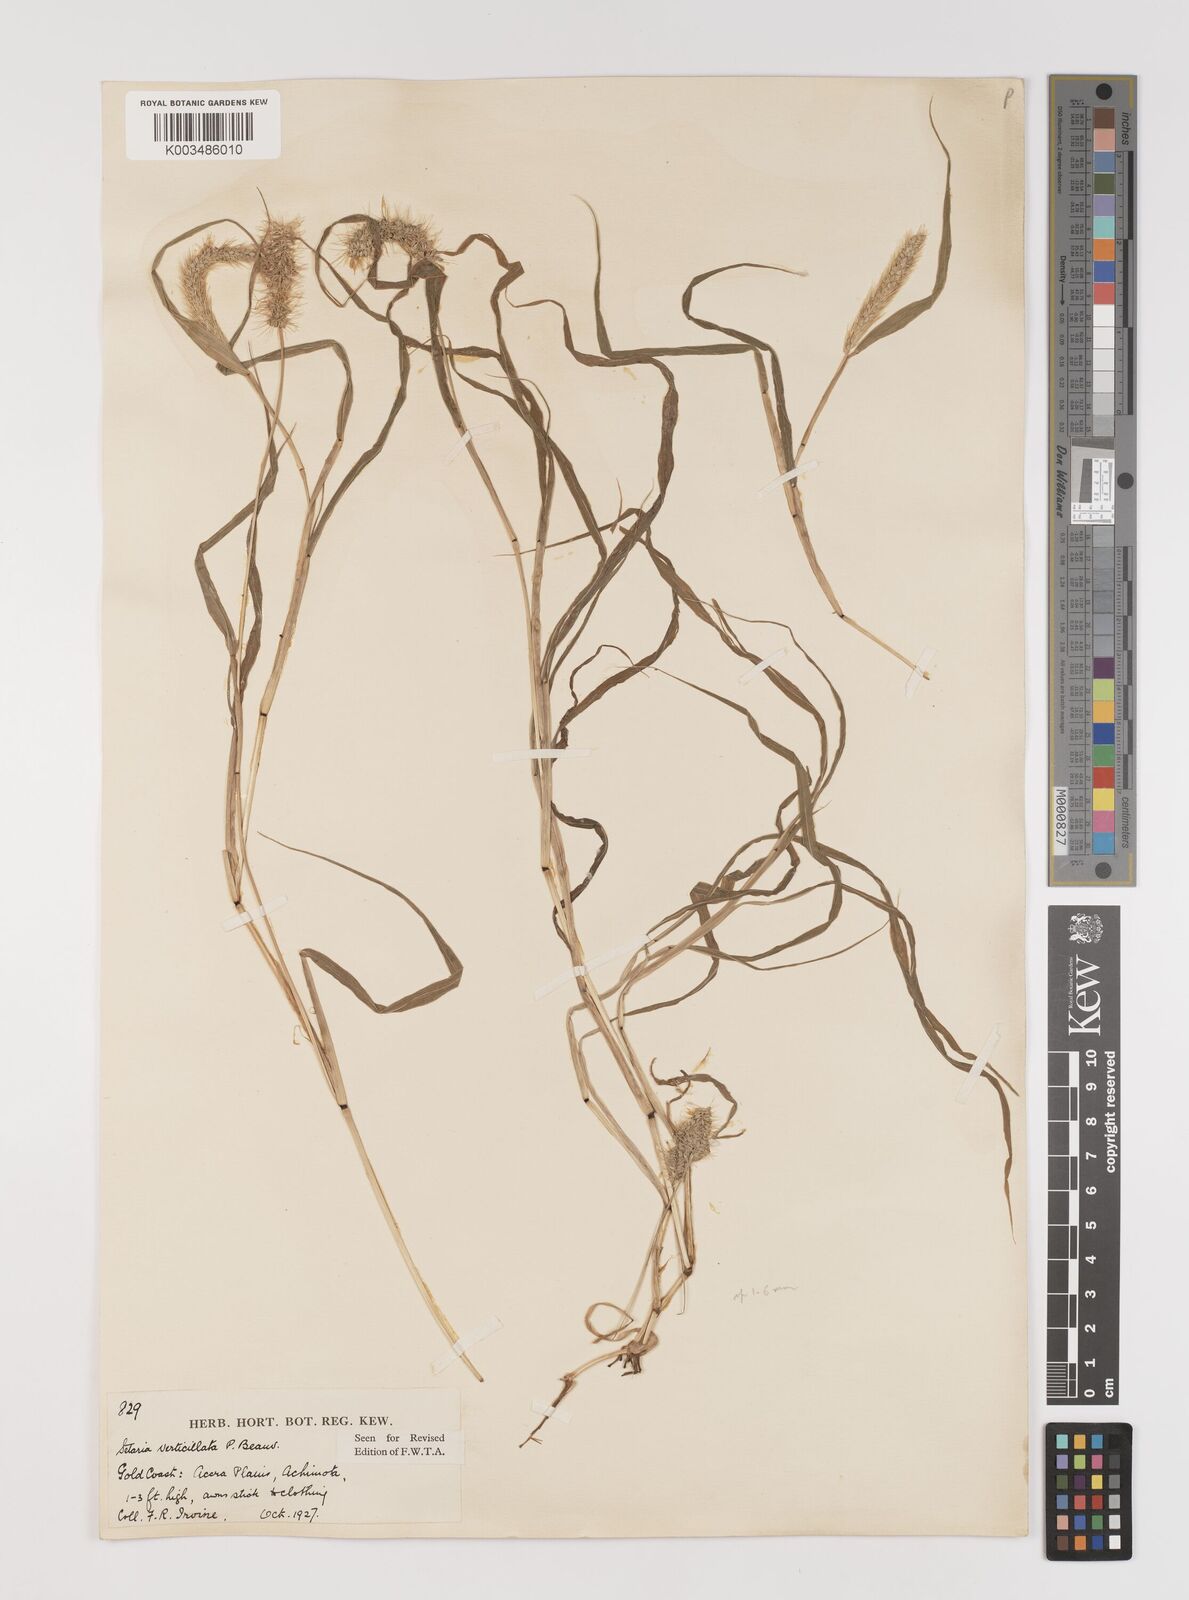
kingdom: Plantae
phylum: Tracheophyta
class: Liliopsida
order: Poales
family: Poaceae
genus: Setaria
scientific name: Setaria verticillata
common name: Hooked bristlegrass
